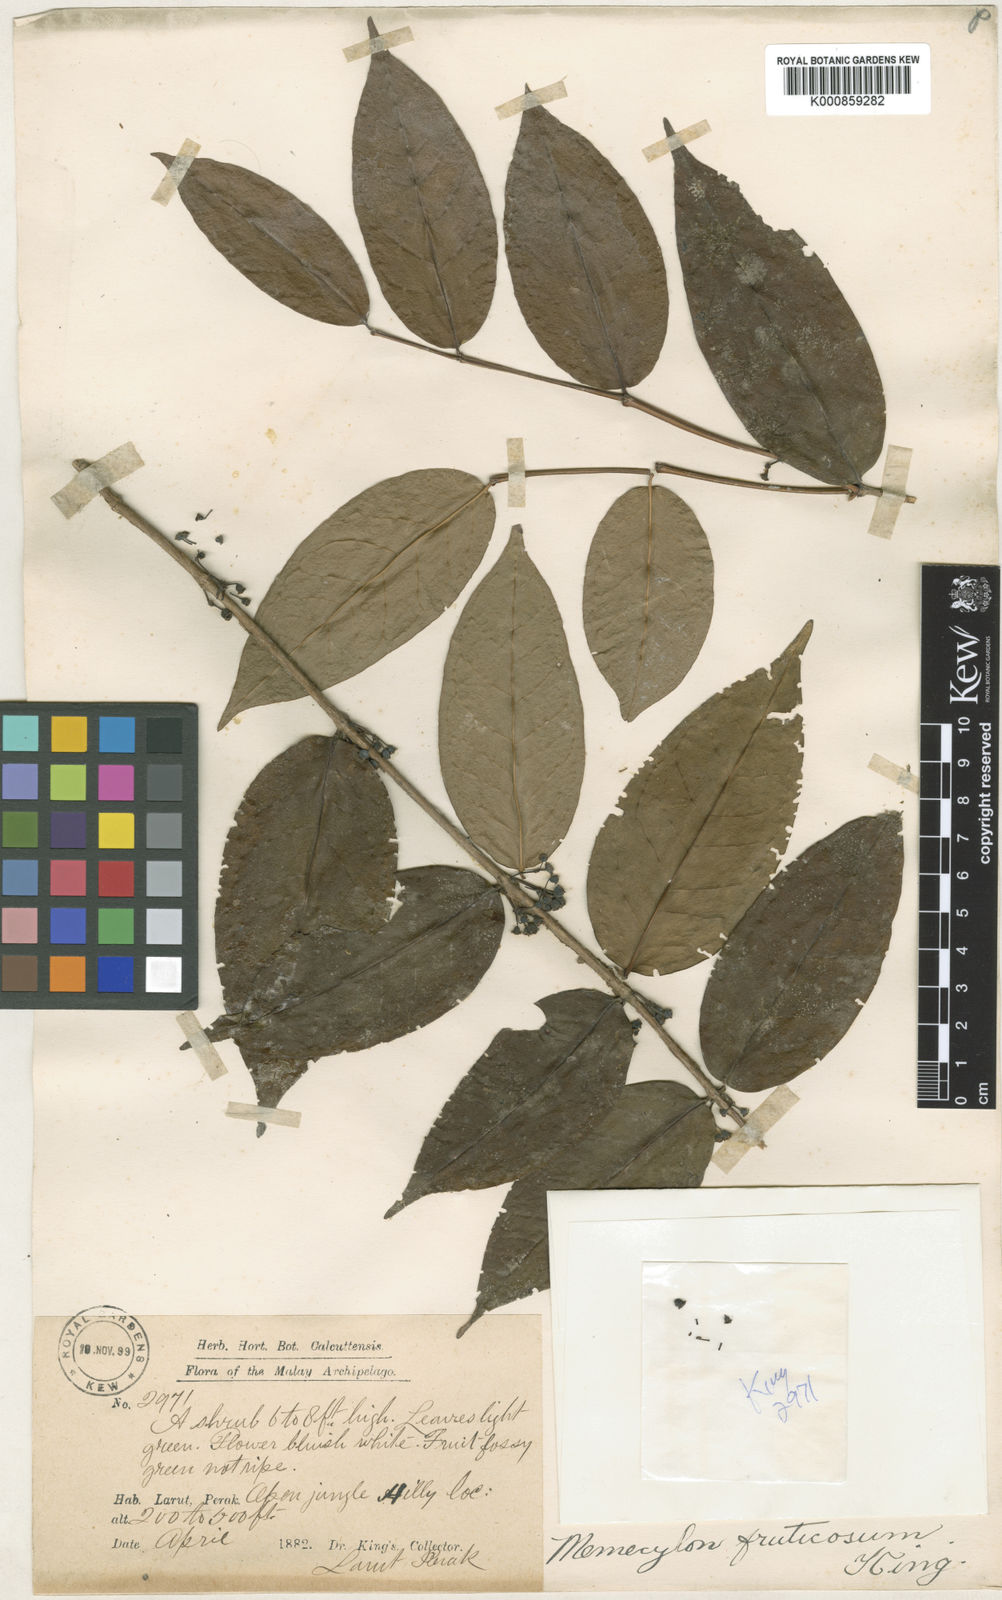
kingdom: Plantae
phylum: Tracheophyta
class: Magnoliopsida
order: Myrtales
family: Melastomataceae
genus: Memecylon
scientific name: Memecylon fruticosum
